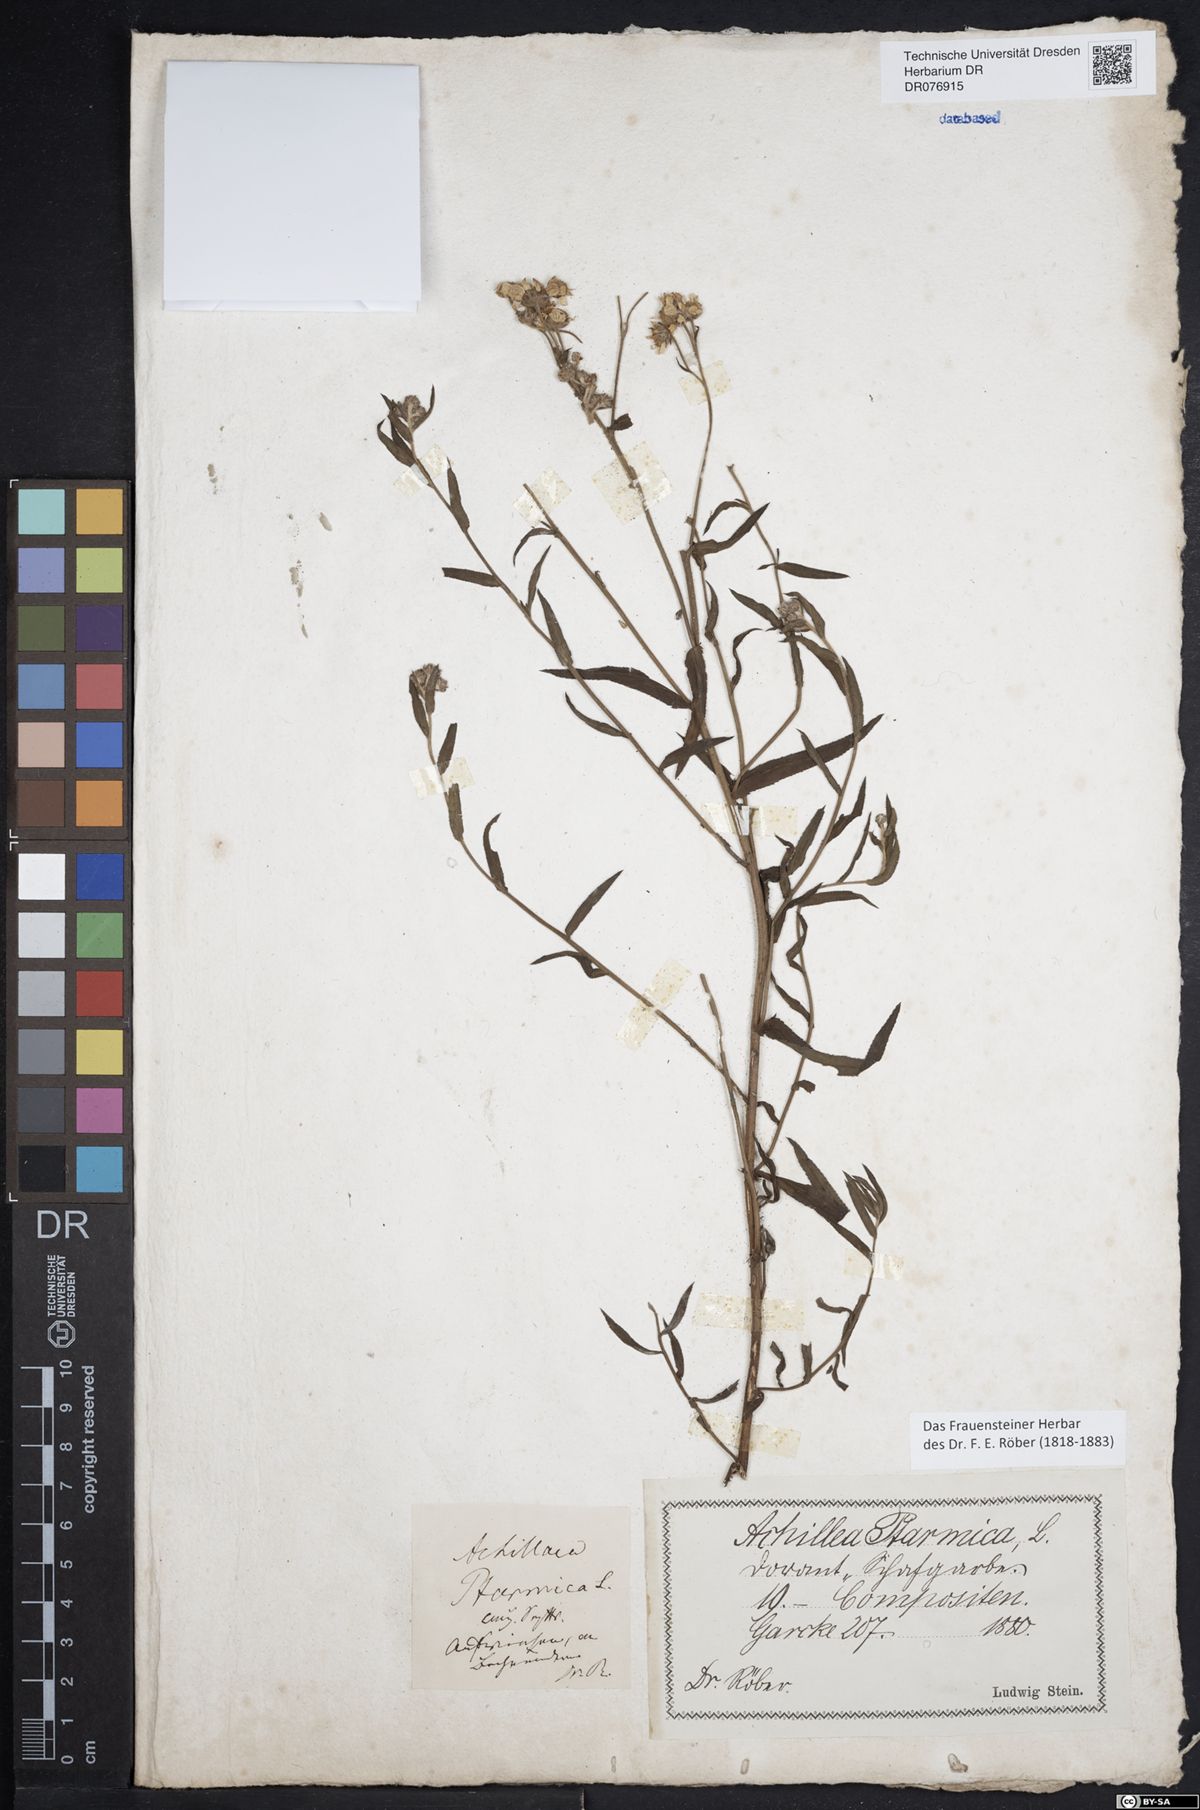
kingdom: Plantae
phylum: Tracheophyta
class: Magnoliopsida
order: Asterales
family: Asteraceae
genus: Achillea
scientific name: Achillea ptarmica
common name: Sneezeweed
